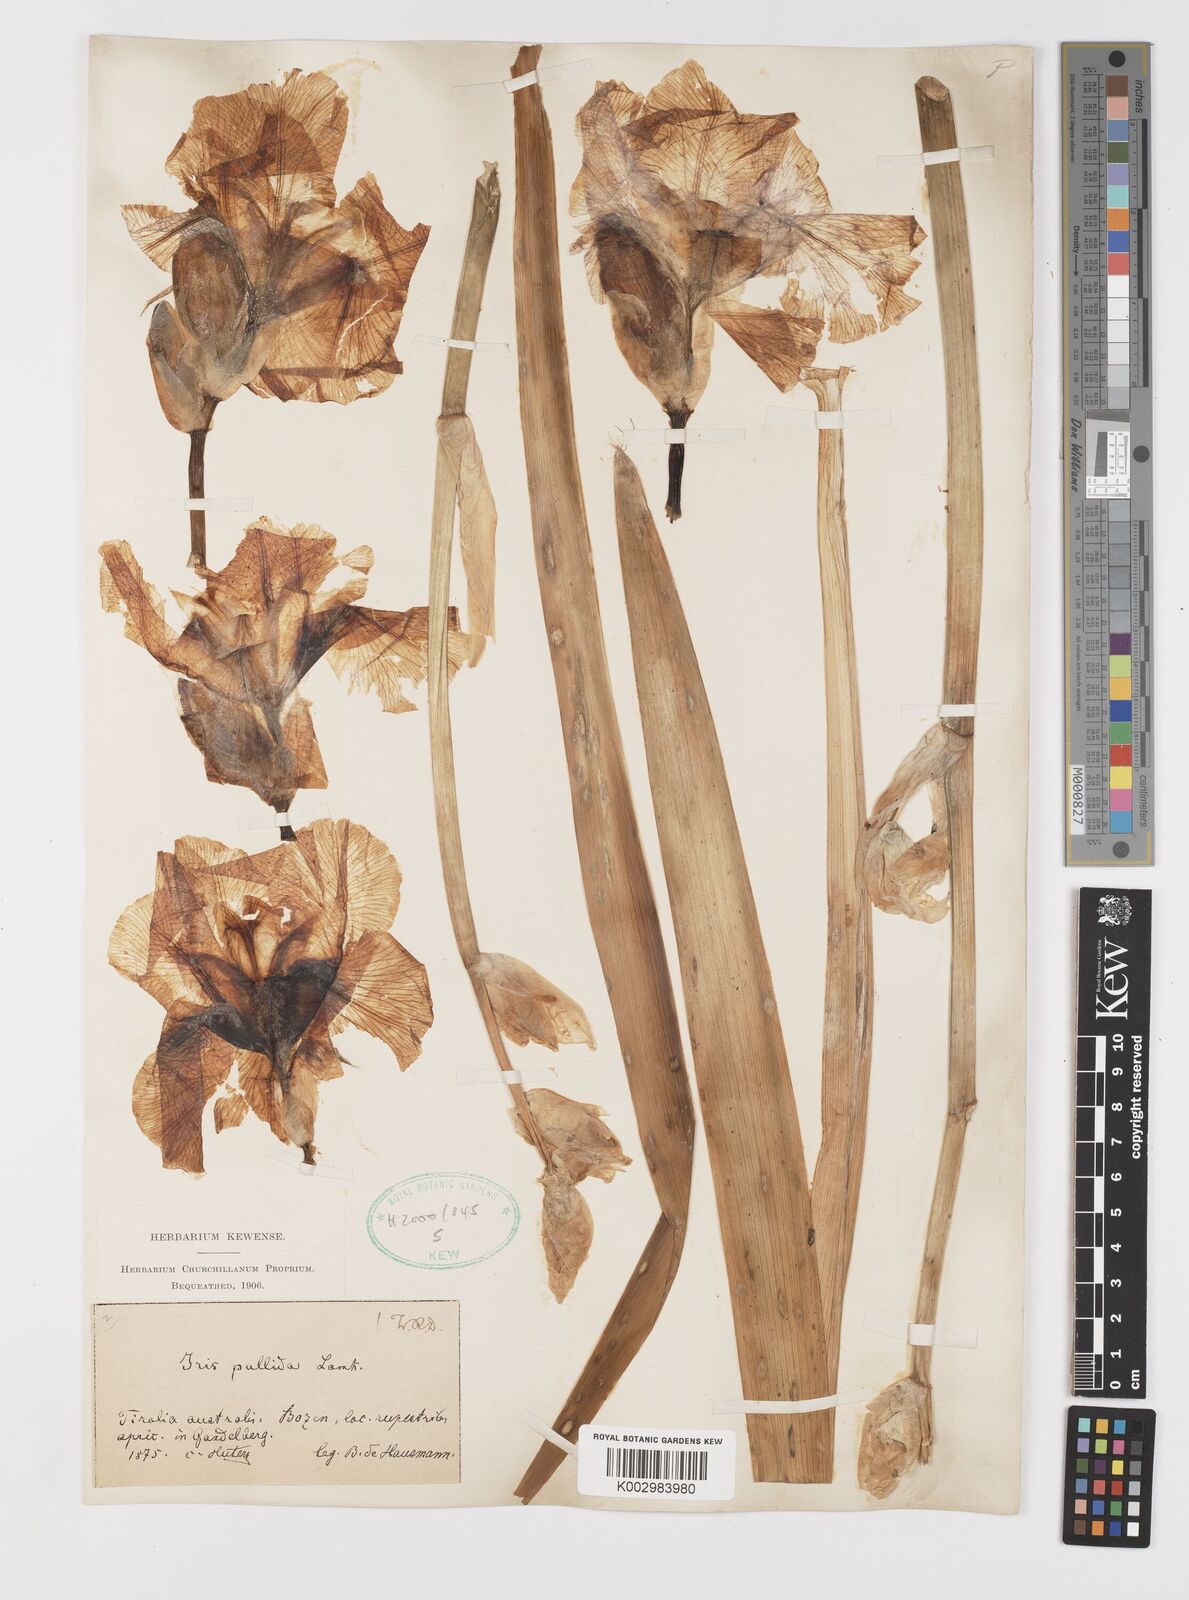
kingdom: Plantae
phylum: Tracheophyta
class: Liliopsida
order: Asparagales
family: Iridaceae
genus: Iris
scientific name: Iris halophila
